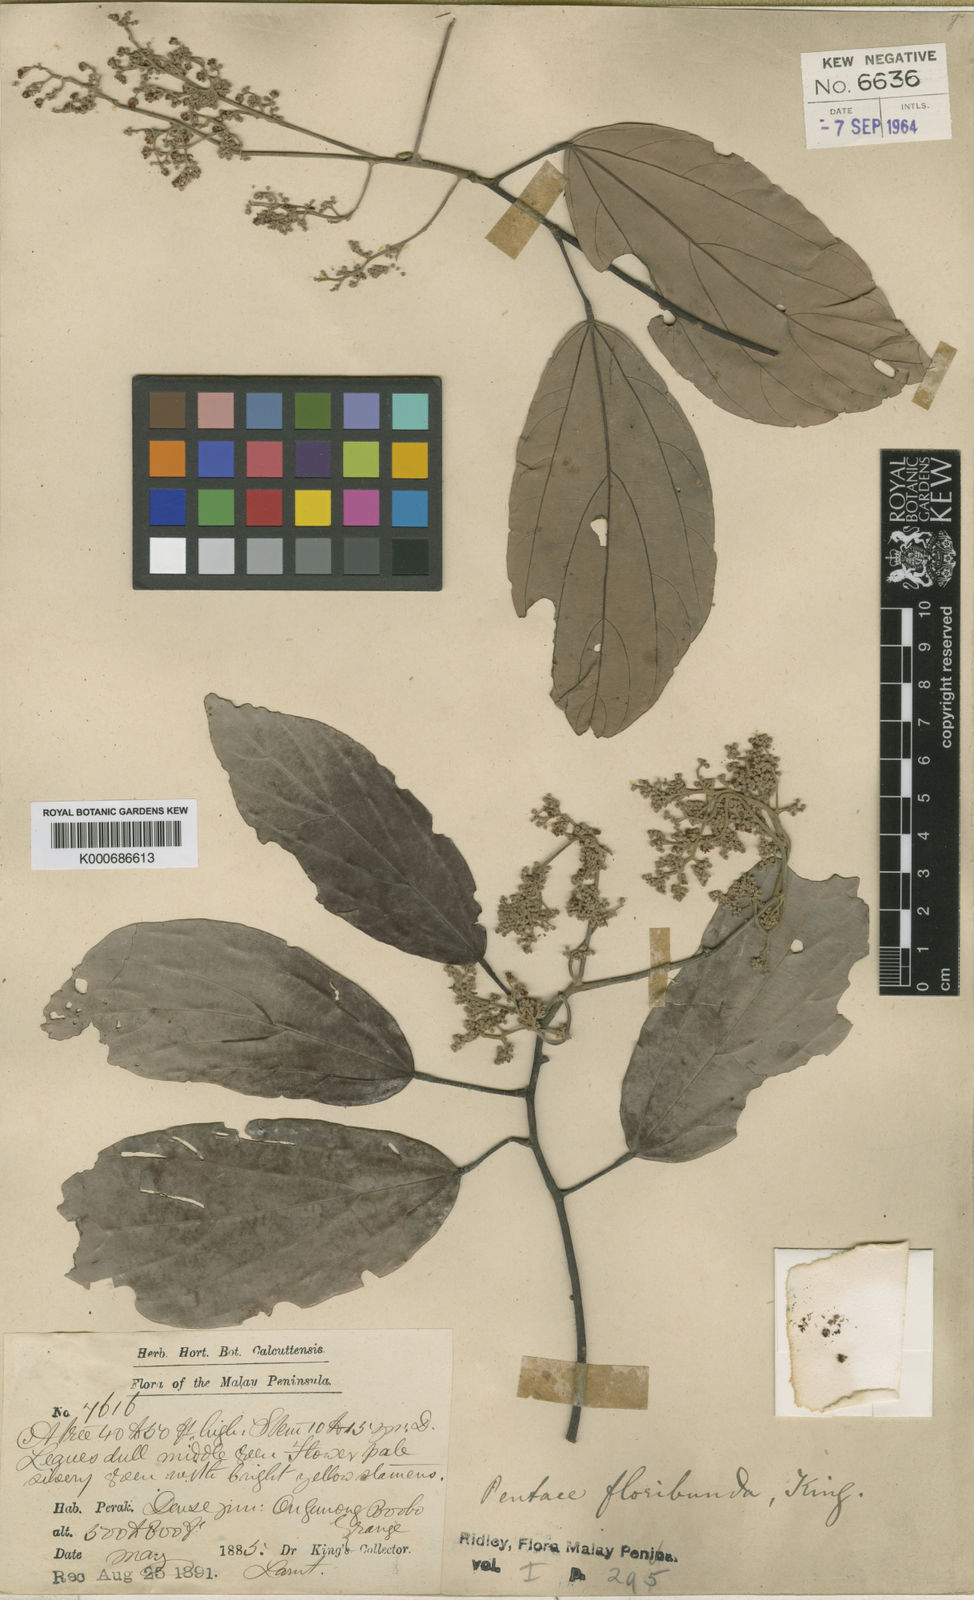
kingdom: Plantae
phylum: Tracheophyta
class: Magnoliopsida
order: Malvales
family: Malvaceae
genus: Pentace
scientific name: Pentace floribunda
